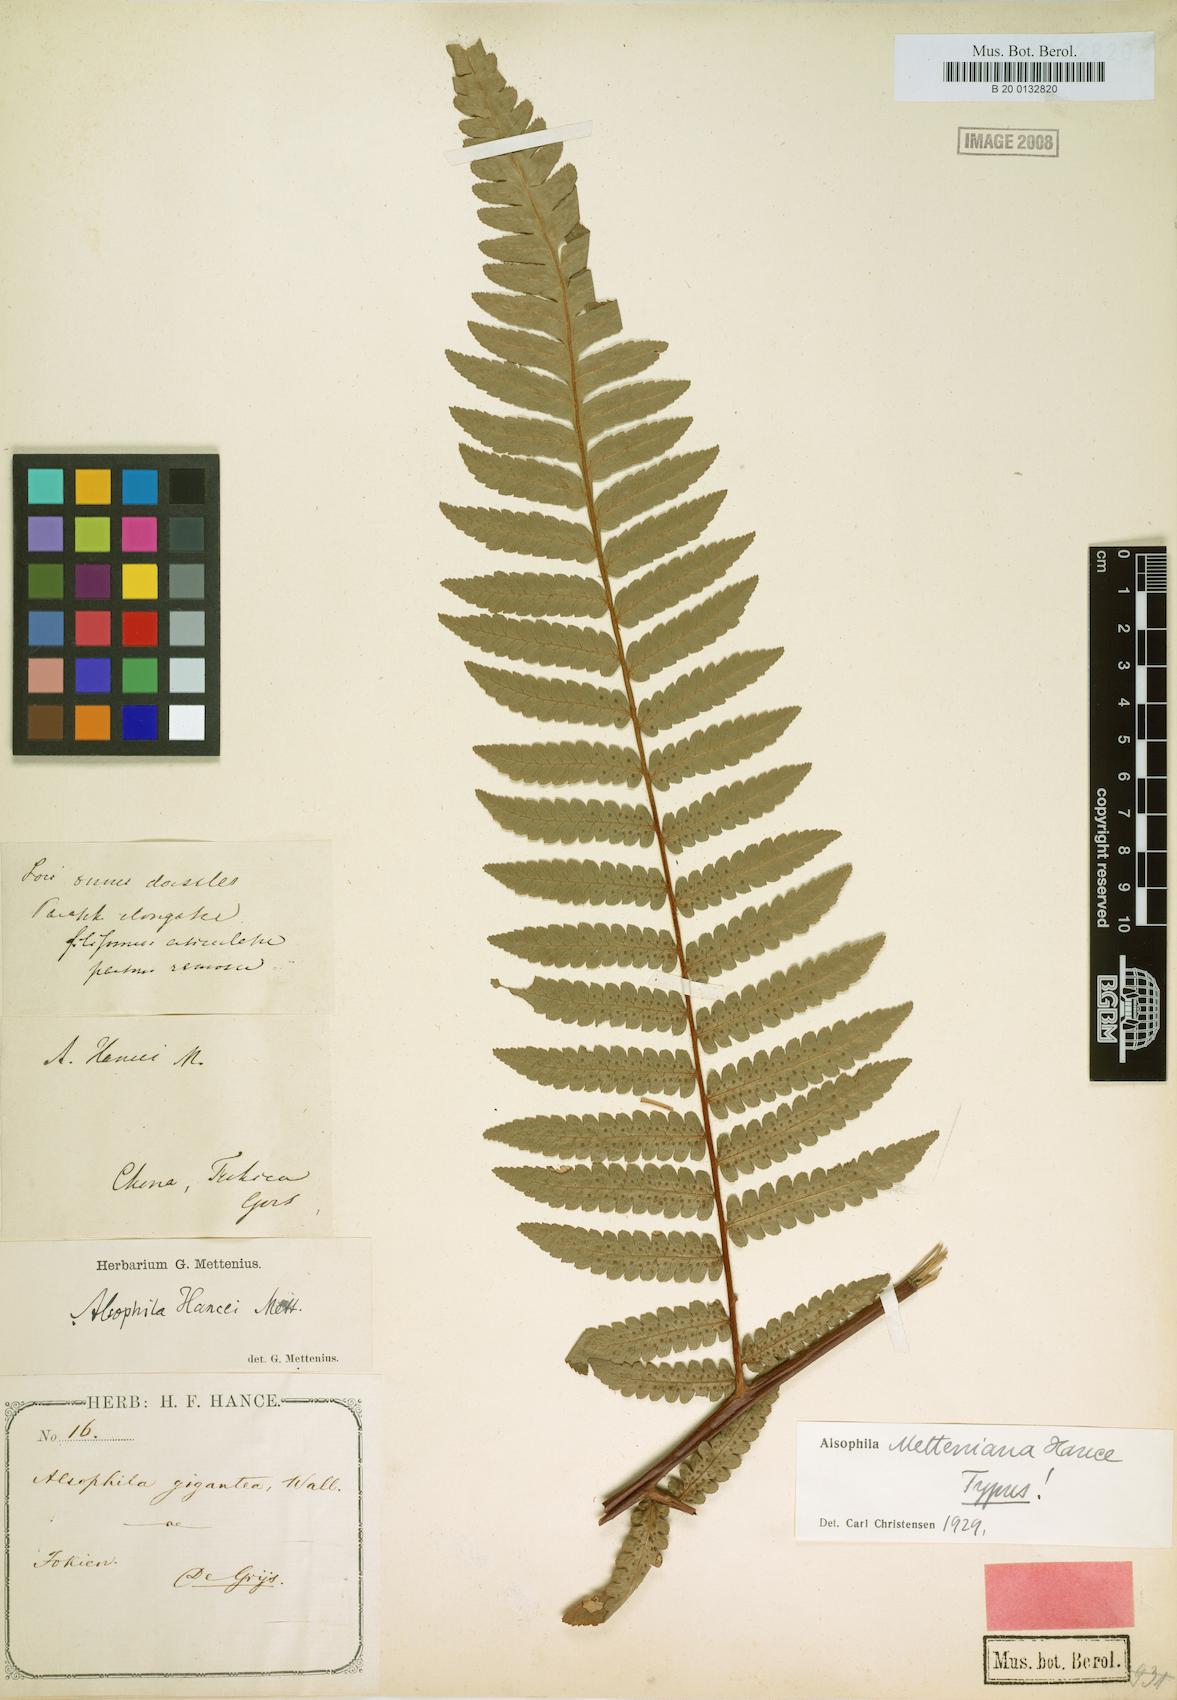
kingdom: Plantae
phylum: Tracheophyta
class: Polypodiopsida
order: Cyatheales
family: Cyatheaceae
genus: Gymnosphaera
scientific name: Gymnosphaera metteniana
